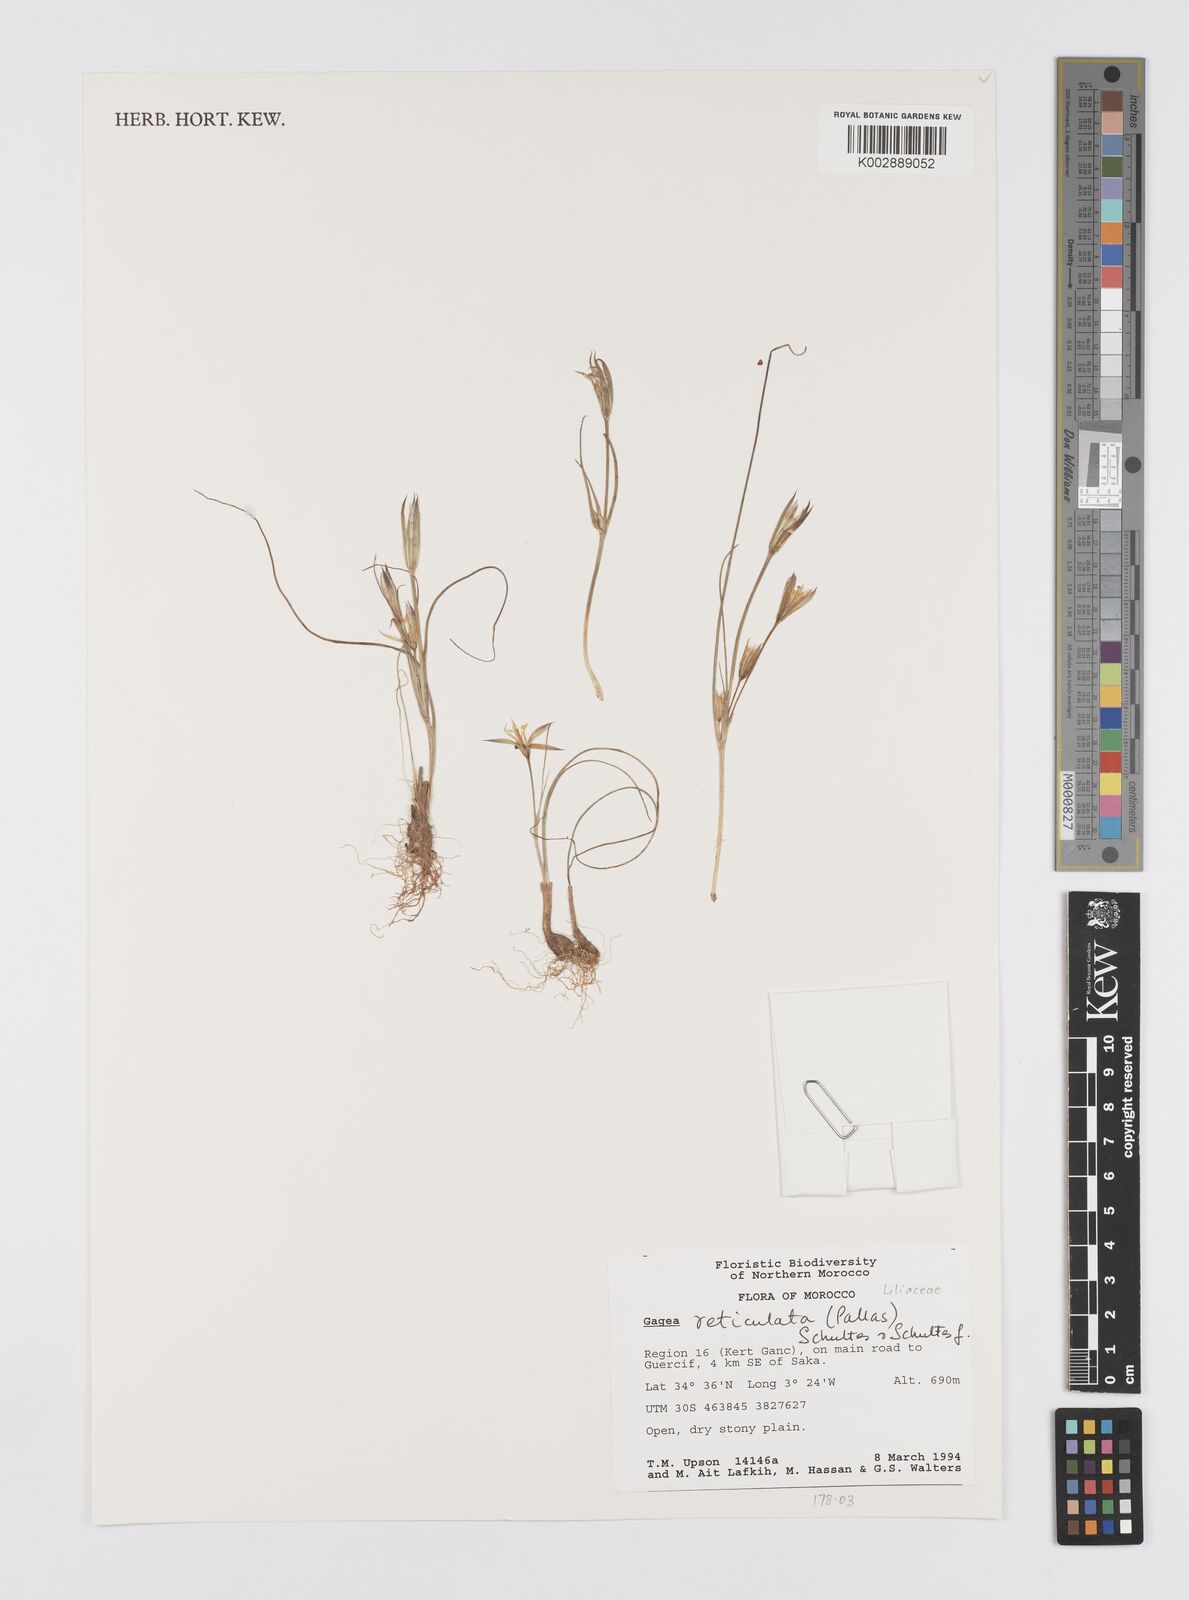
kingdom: Plantae
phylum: Tracheophyta
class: Liliopsida
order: Liliales
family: Liliaceae
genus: Gagea
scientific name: Gagea reticulata
